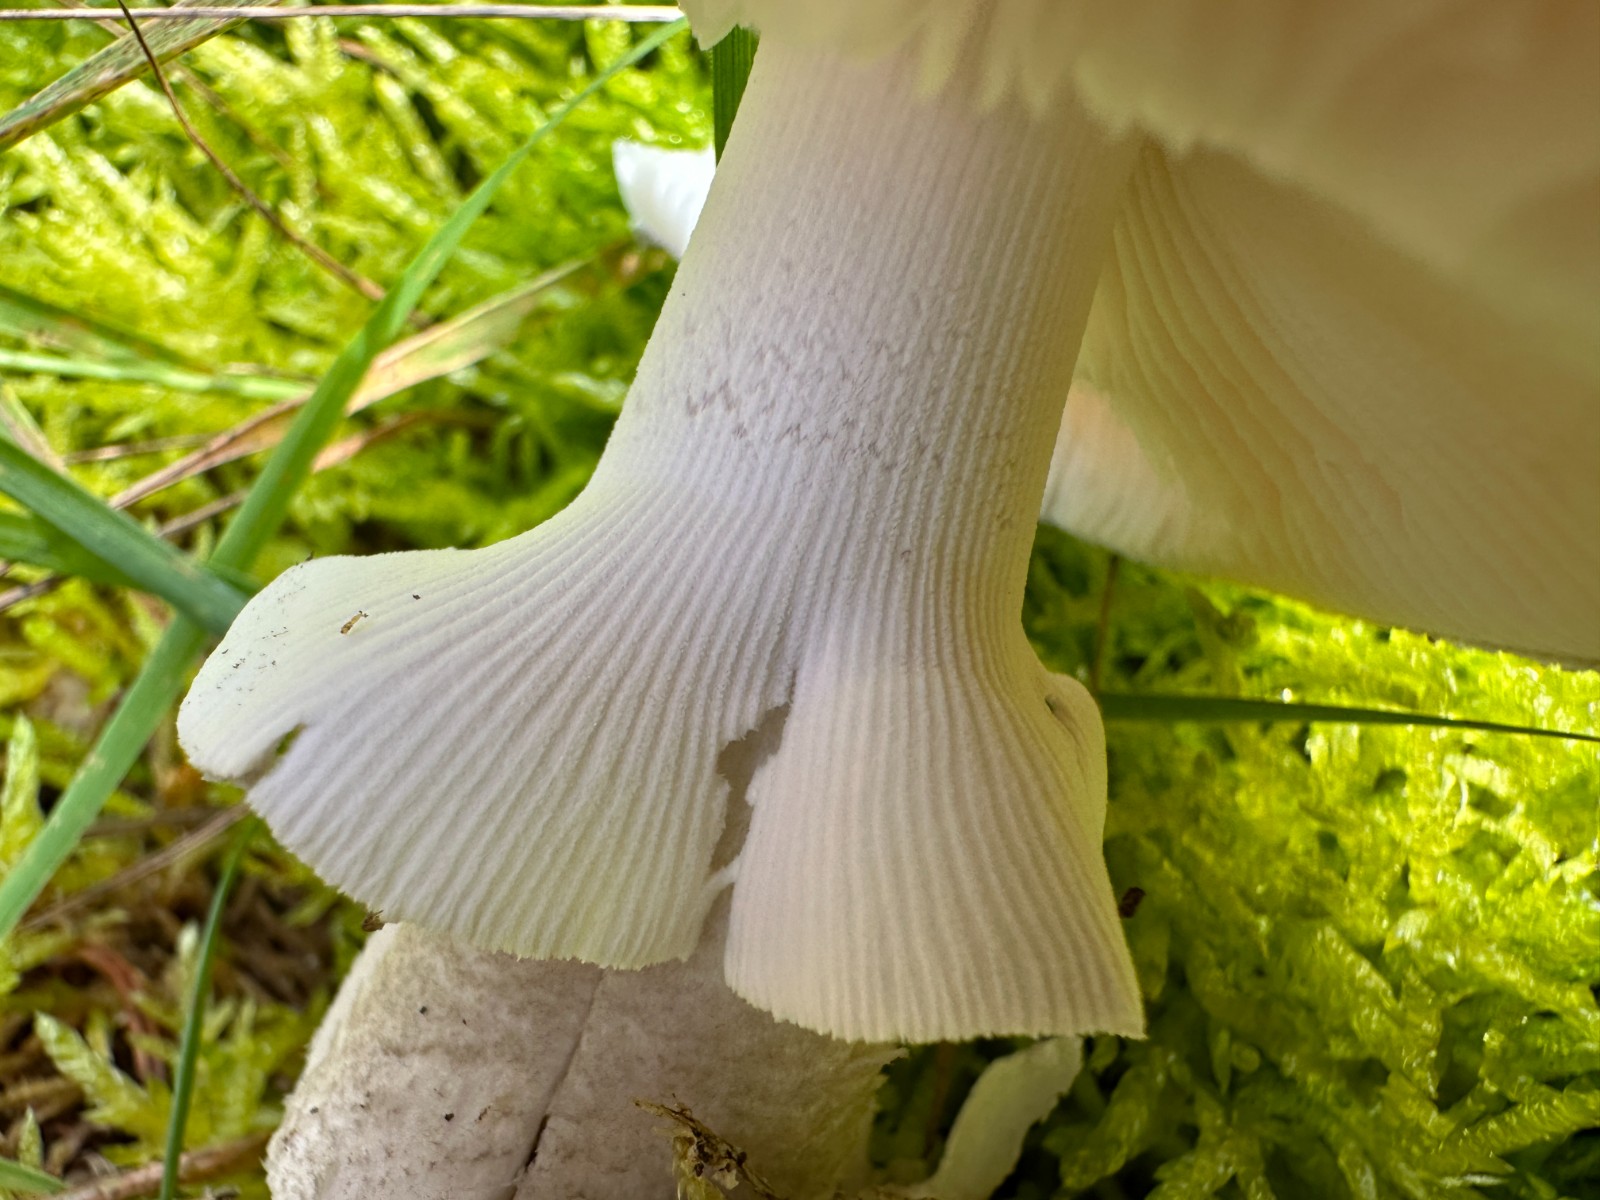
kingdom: Fungi
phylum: Basidiomycota
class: Agaricomycetes
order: Agaricales
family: Amanitaceae
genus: Amanita
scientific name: Amanita
